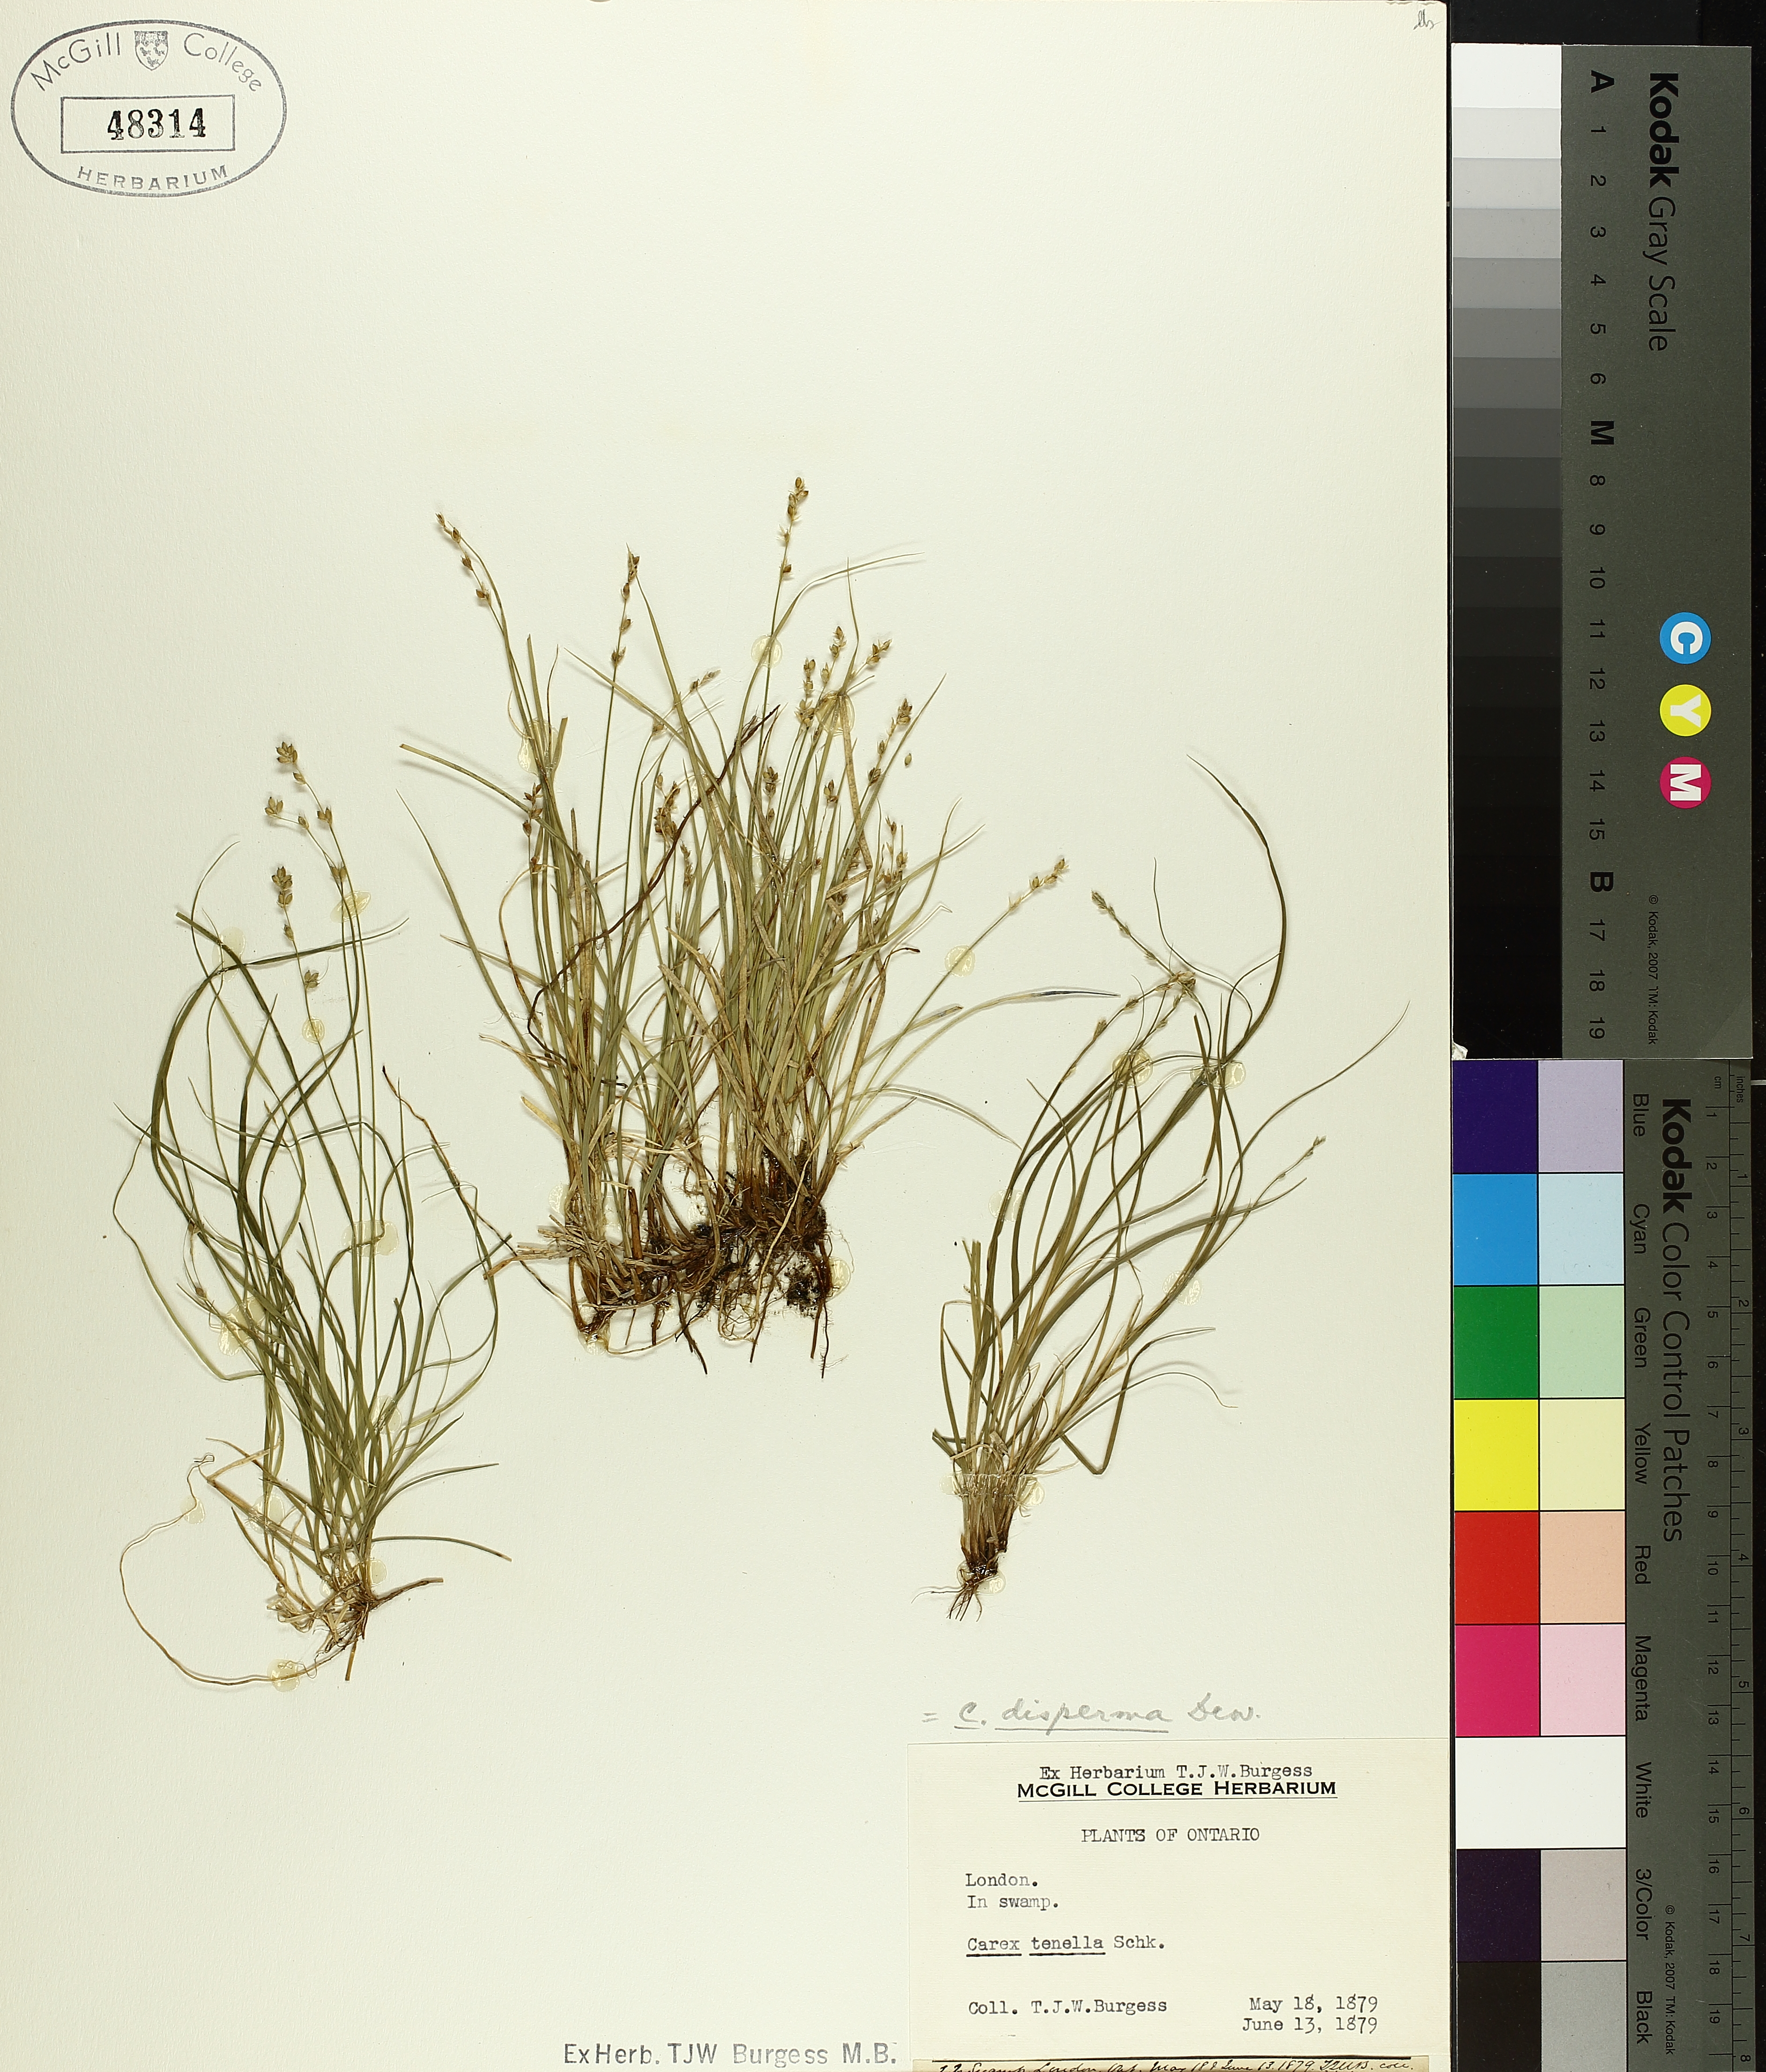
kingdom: Plantae
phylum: Tracheophyta
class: Liliopsida
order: Poales
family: Cyperaceae
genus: Carex
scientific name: Carex disperma
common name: Short-leaved sedge
